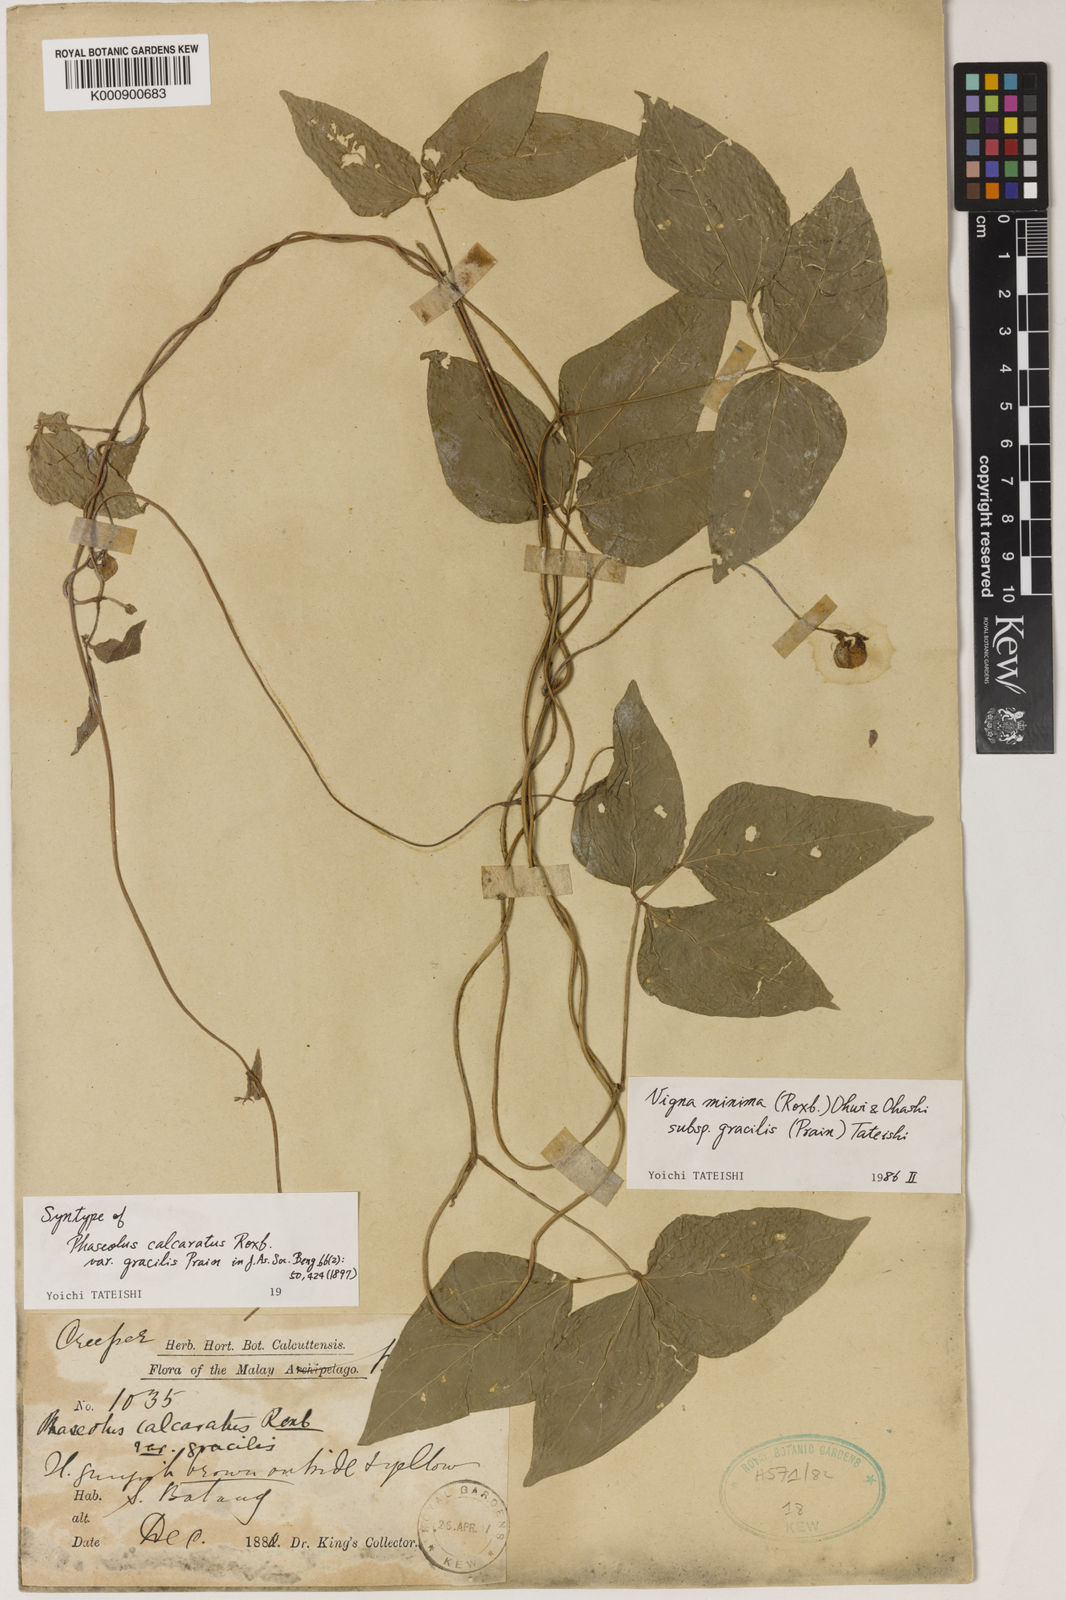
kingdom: Plantae
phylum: Tracheophyta
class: Magnoliopsida
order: Fabales
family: Fabaceae
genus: Vigna
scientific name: Vigna minima
